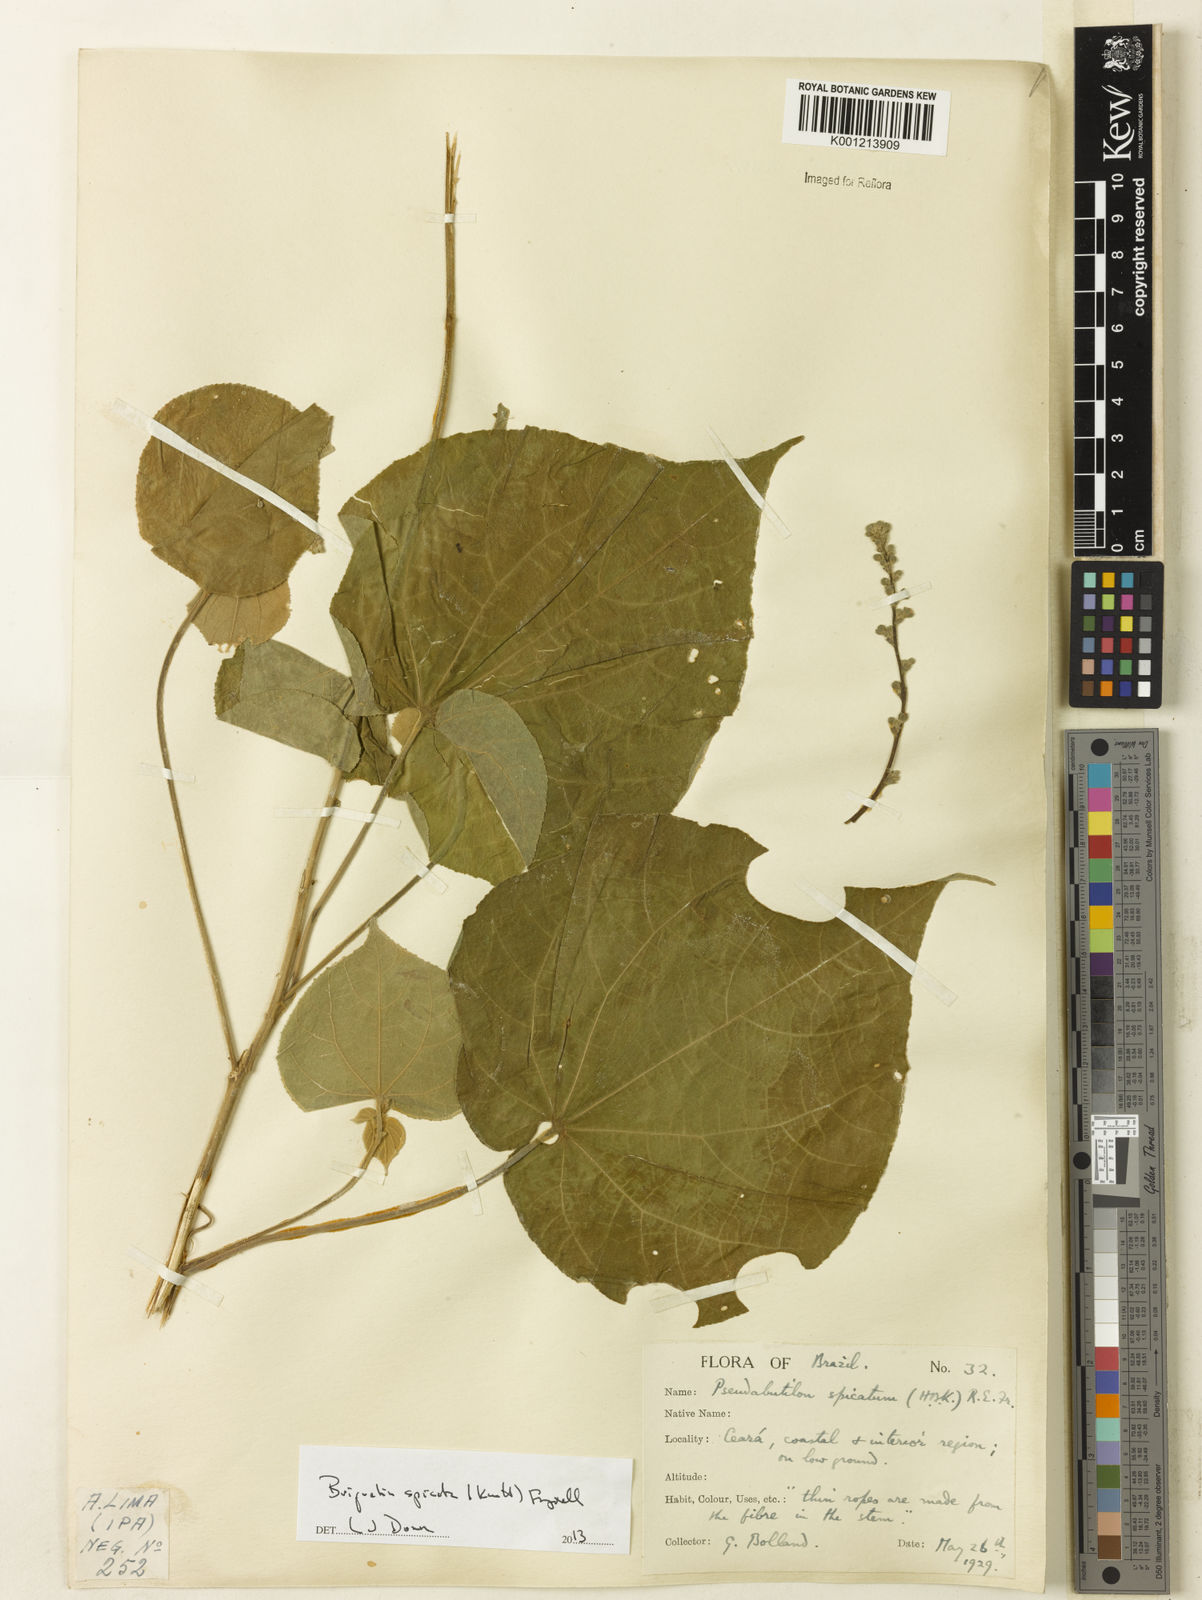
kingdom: Plantae
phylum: Tracheophyta
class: Magnoliopsida
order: Malvales
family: Malvaceae
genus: Allobriquetia
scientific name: Allobriquetia spicata
